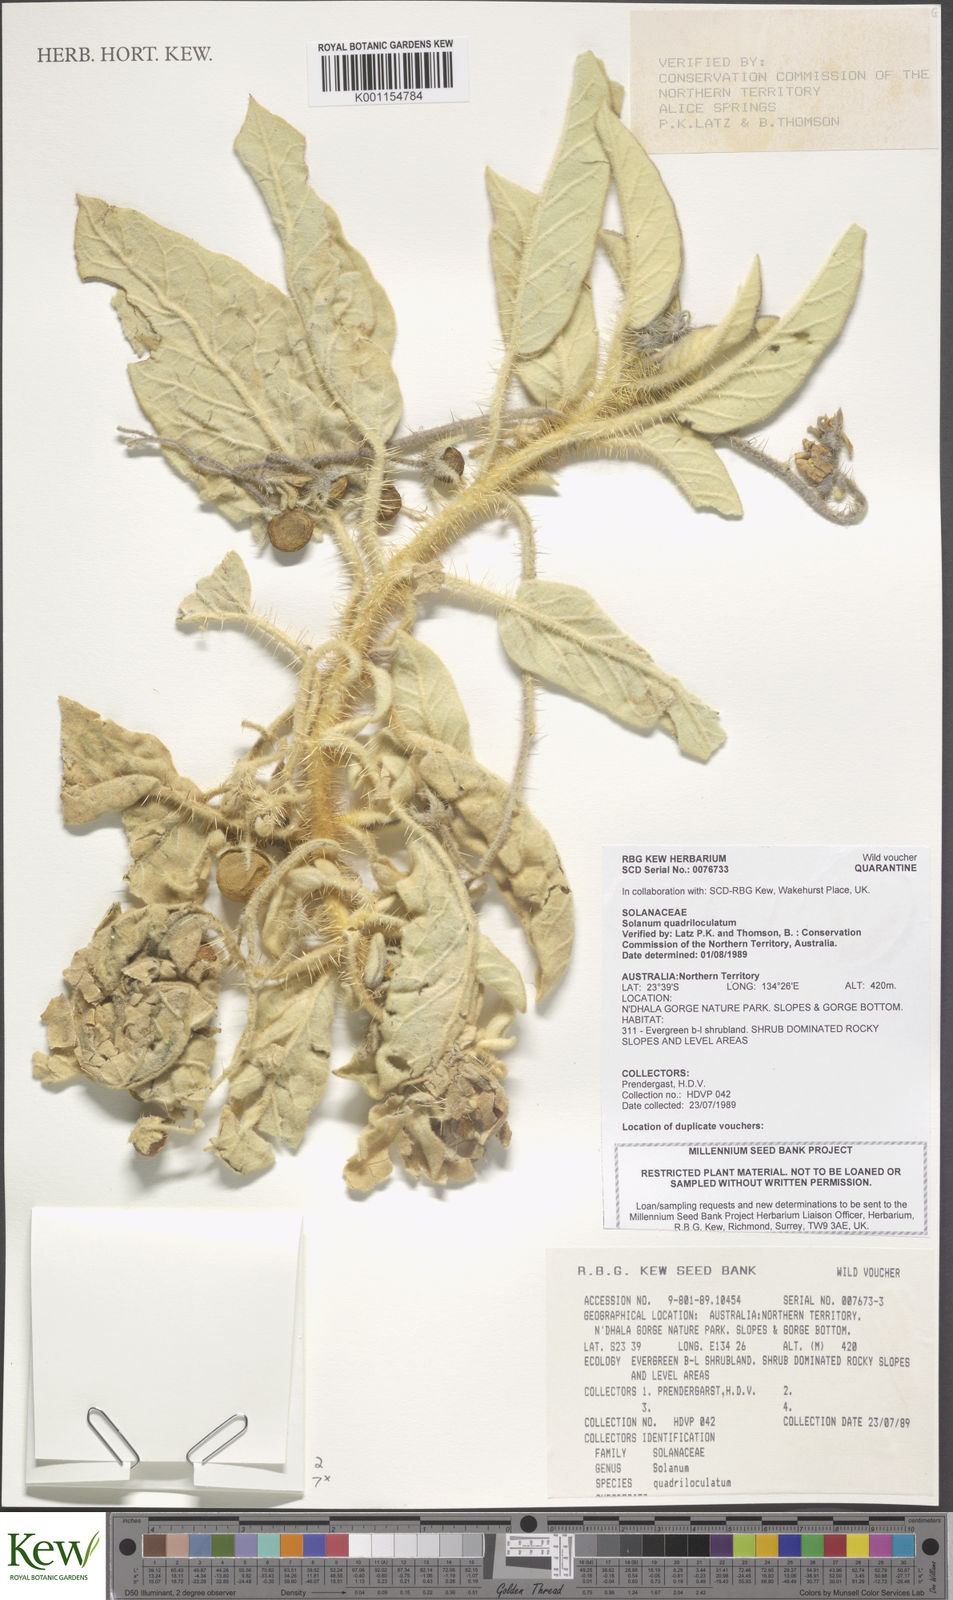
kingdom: Plantae
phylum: Tracheophyta
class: Magnoliopsida
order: Solanales
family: Solanaceae
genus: Solanum
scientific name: Solanum quadriloculatum
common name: Wild tomato
